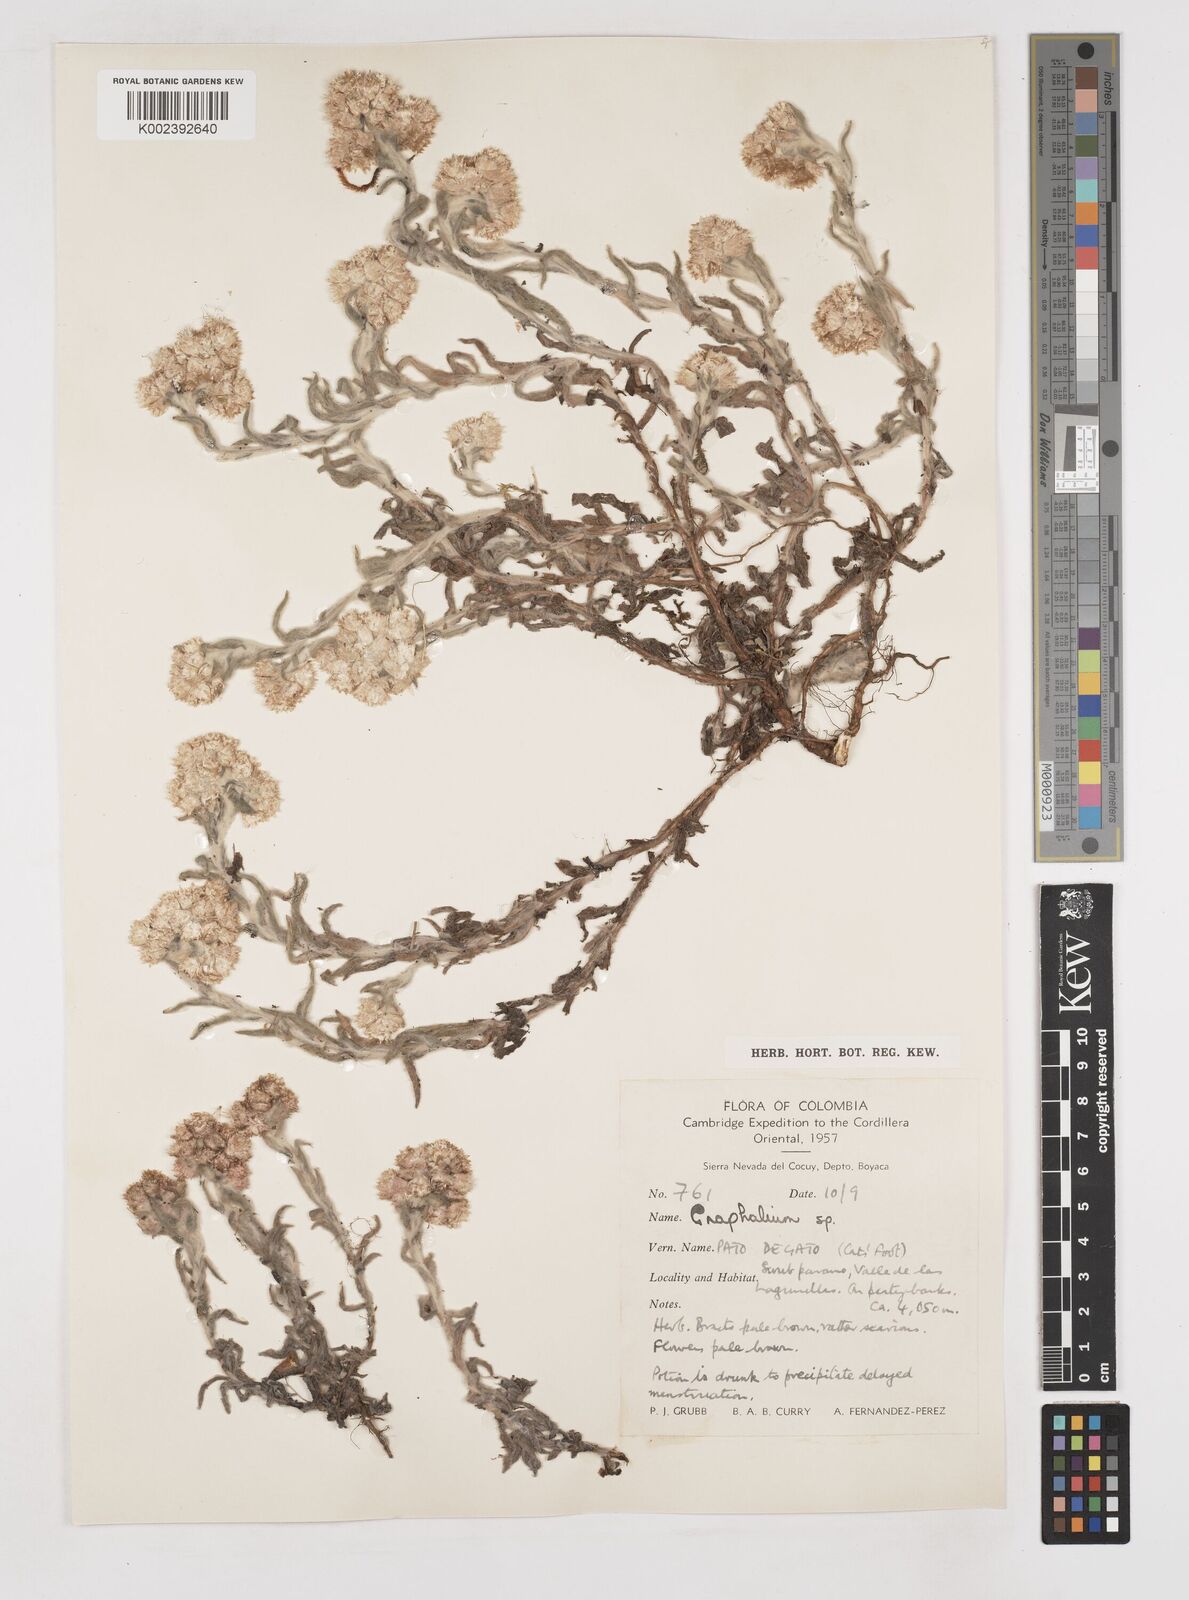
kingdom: Plantae
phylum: Tracheophyta
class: Magnoliopsida
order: Asterales
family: Asteraceae
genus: Gnaphalium
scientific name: Gnaphalium
